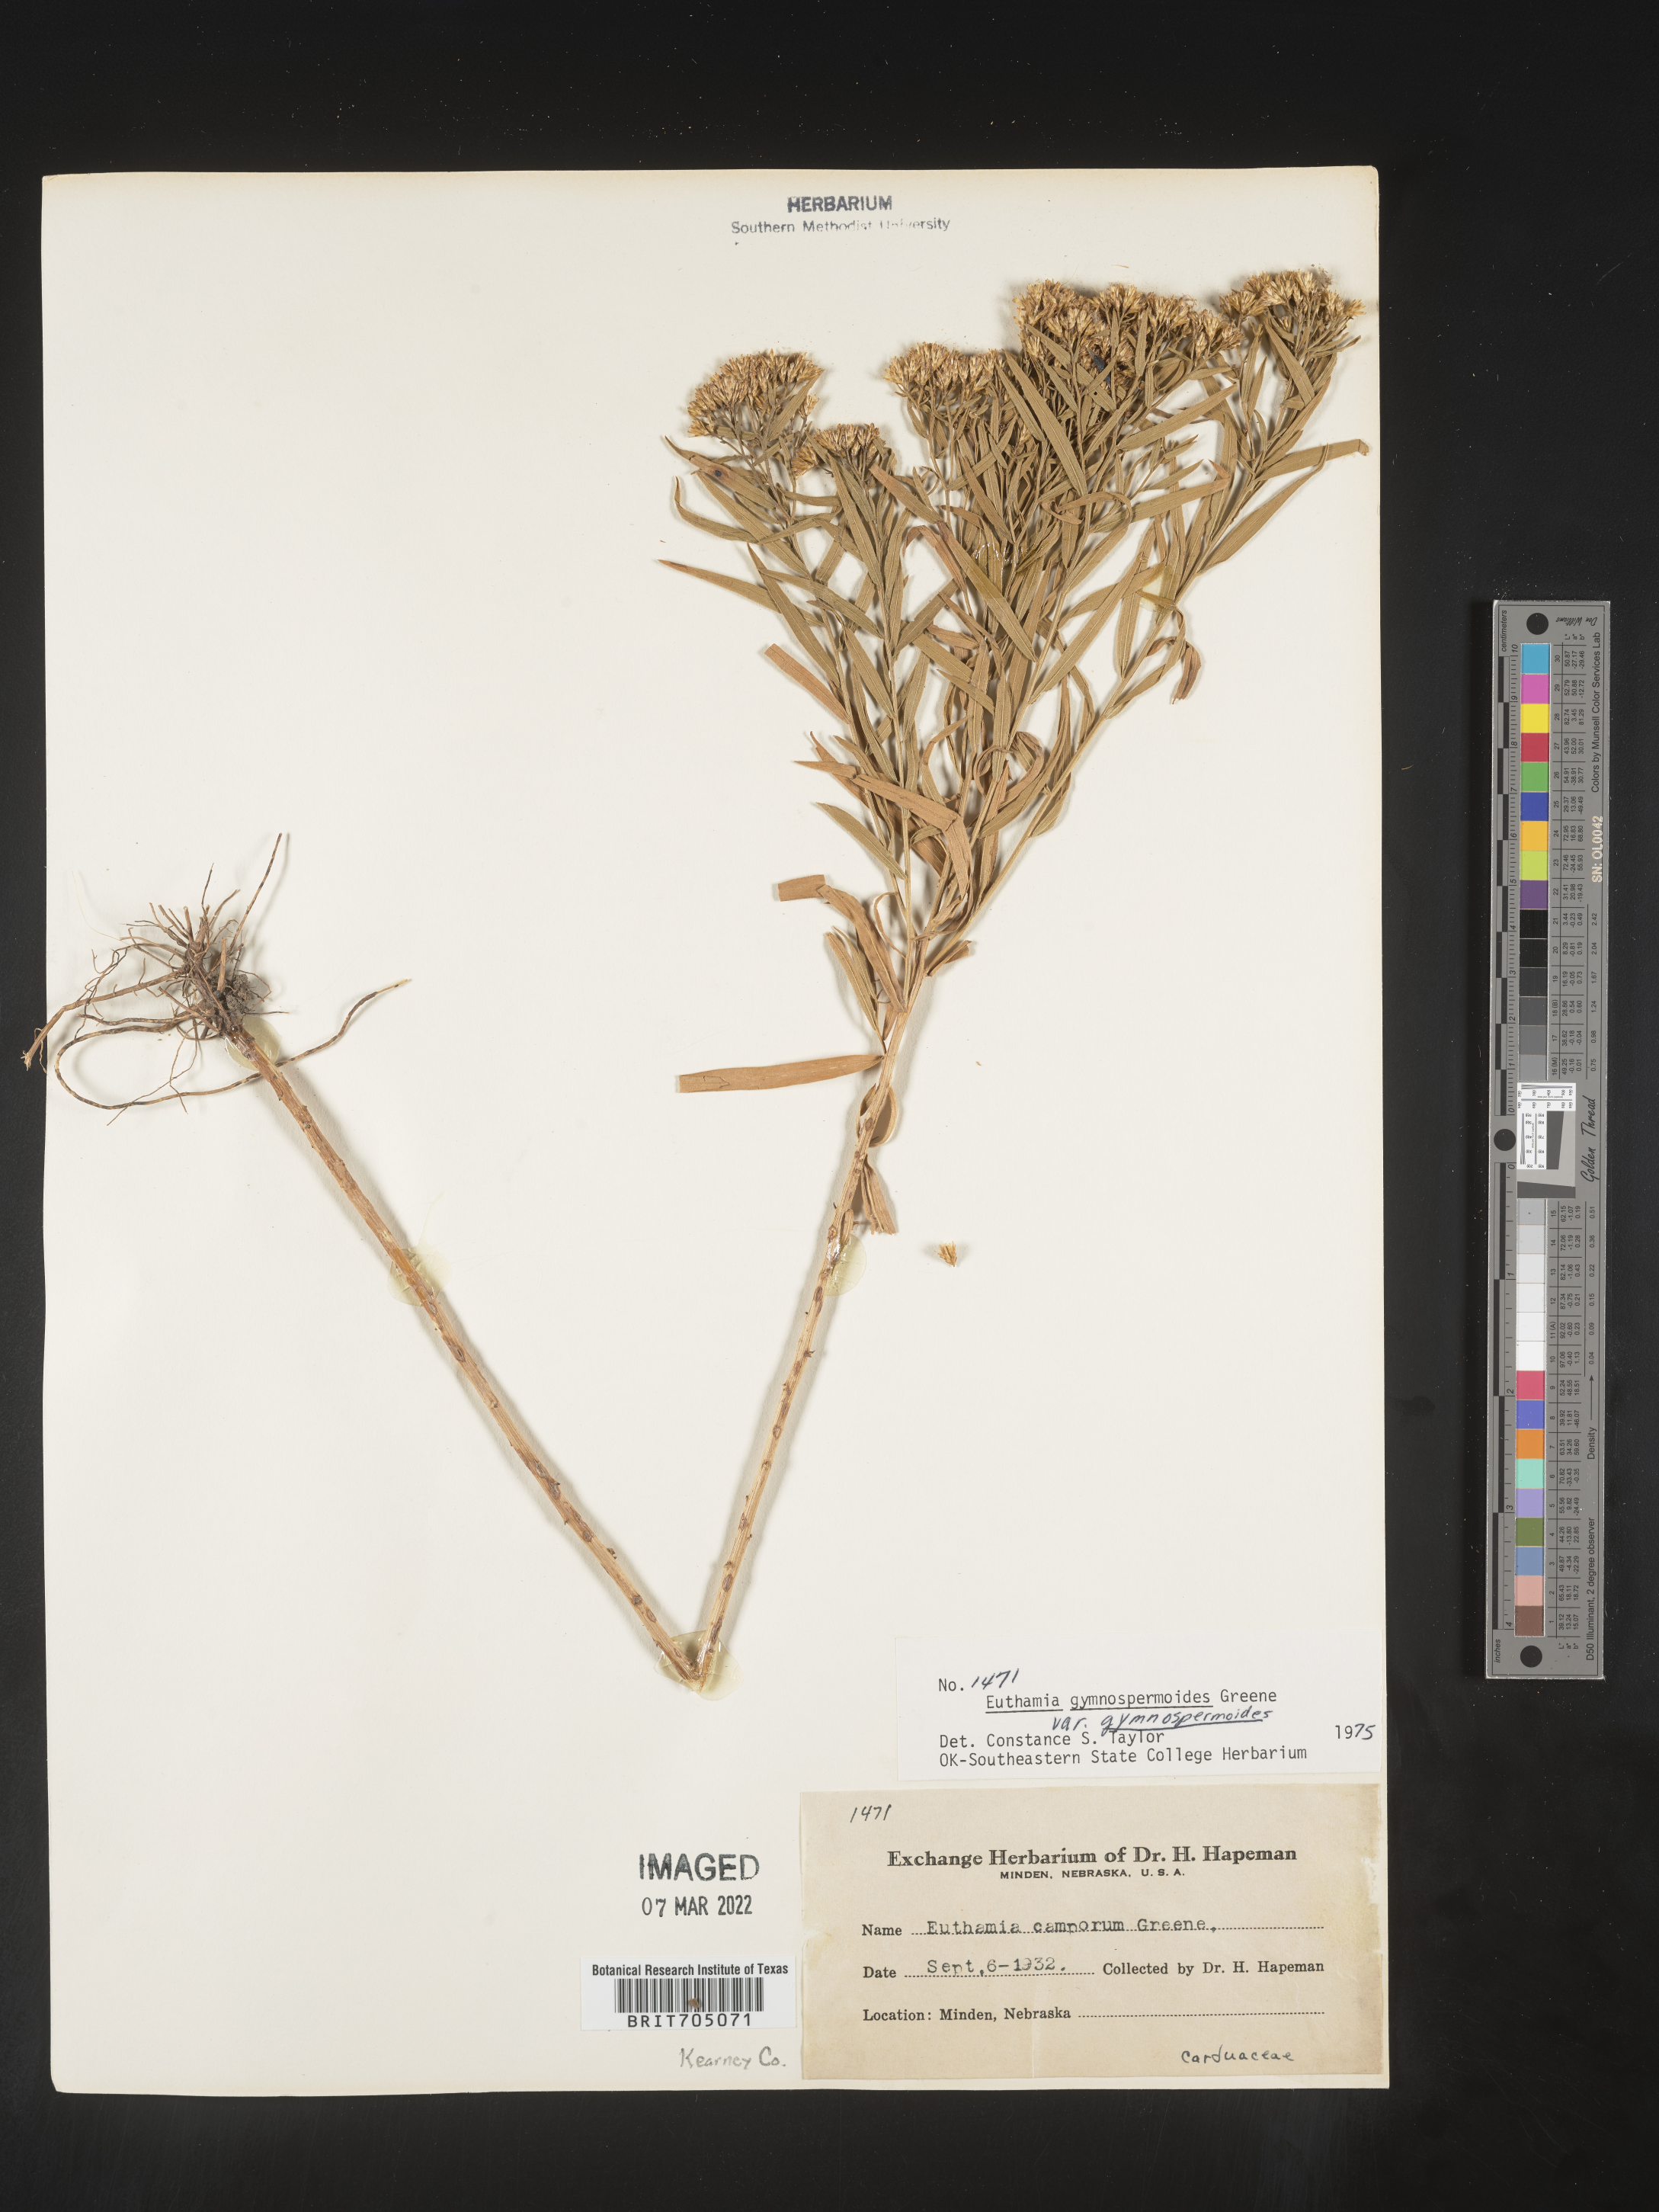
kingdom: Plantae
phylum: Tracheophyta
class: Magnoliopsida
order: Asterales
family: Asteraceae
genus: Euthamia
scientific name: Euthamia gymnospermoides
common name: Great plains goldentop
